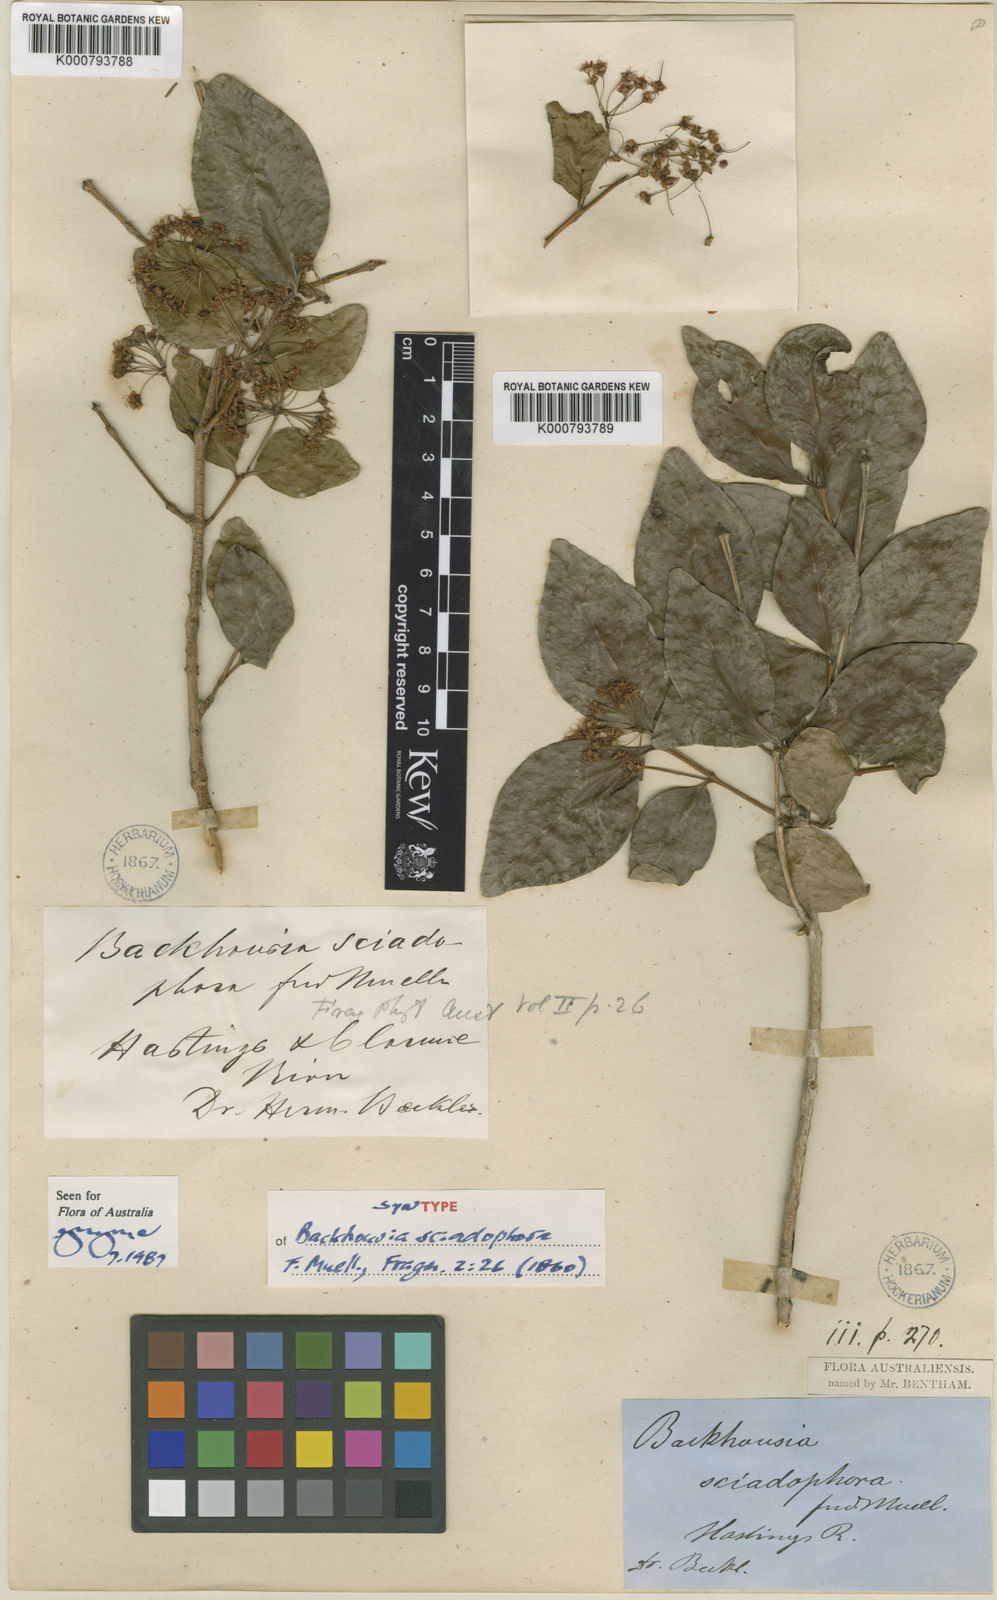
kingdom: Plantae
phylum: Tracheophyta
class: Magnoliopsida
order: Myrtales
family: Myrtaceae
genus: Backhousia
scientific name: Backhousia sciadophora
